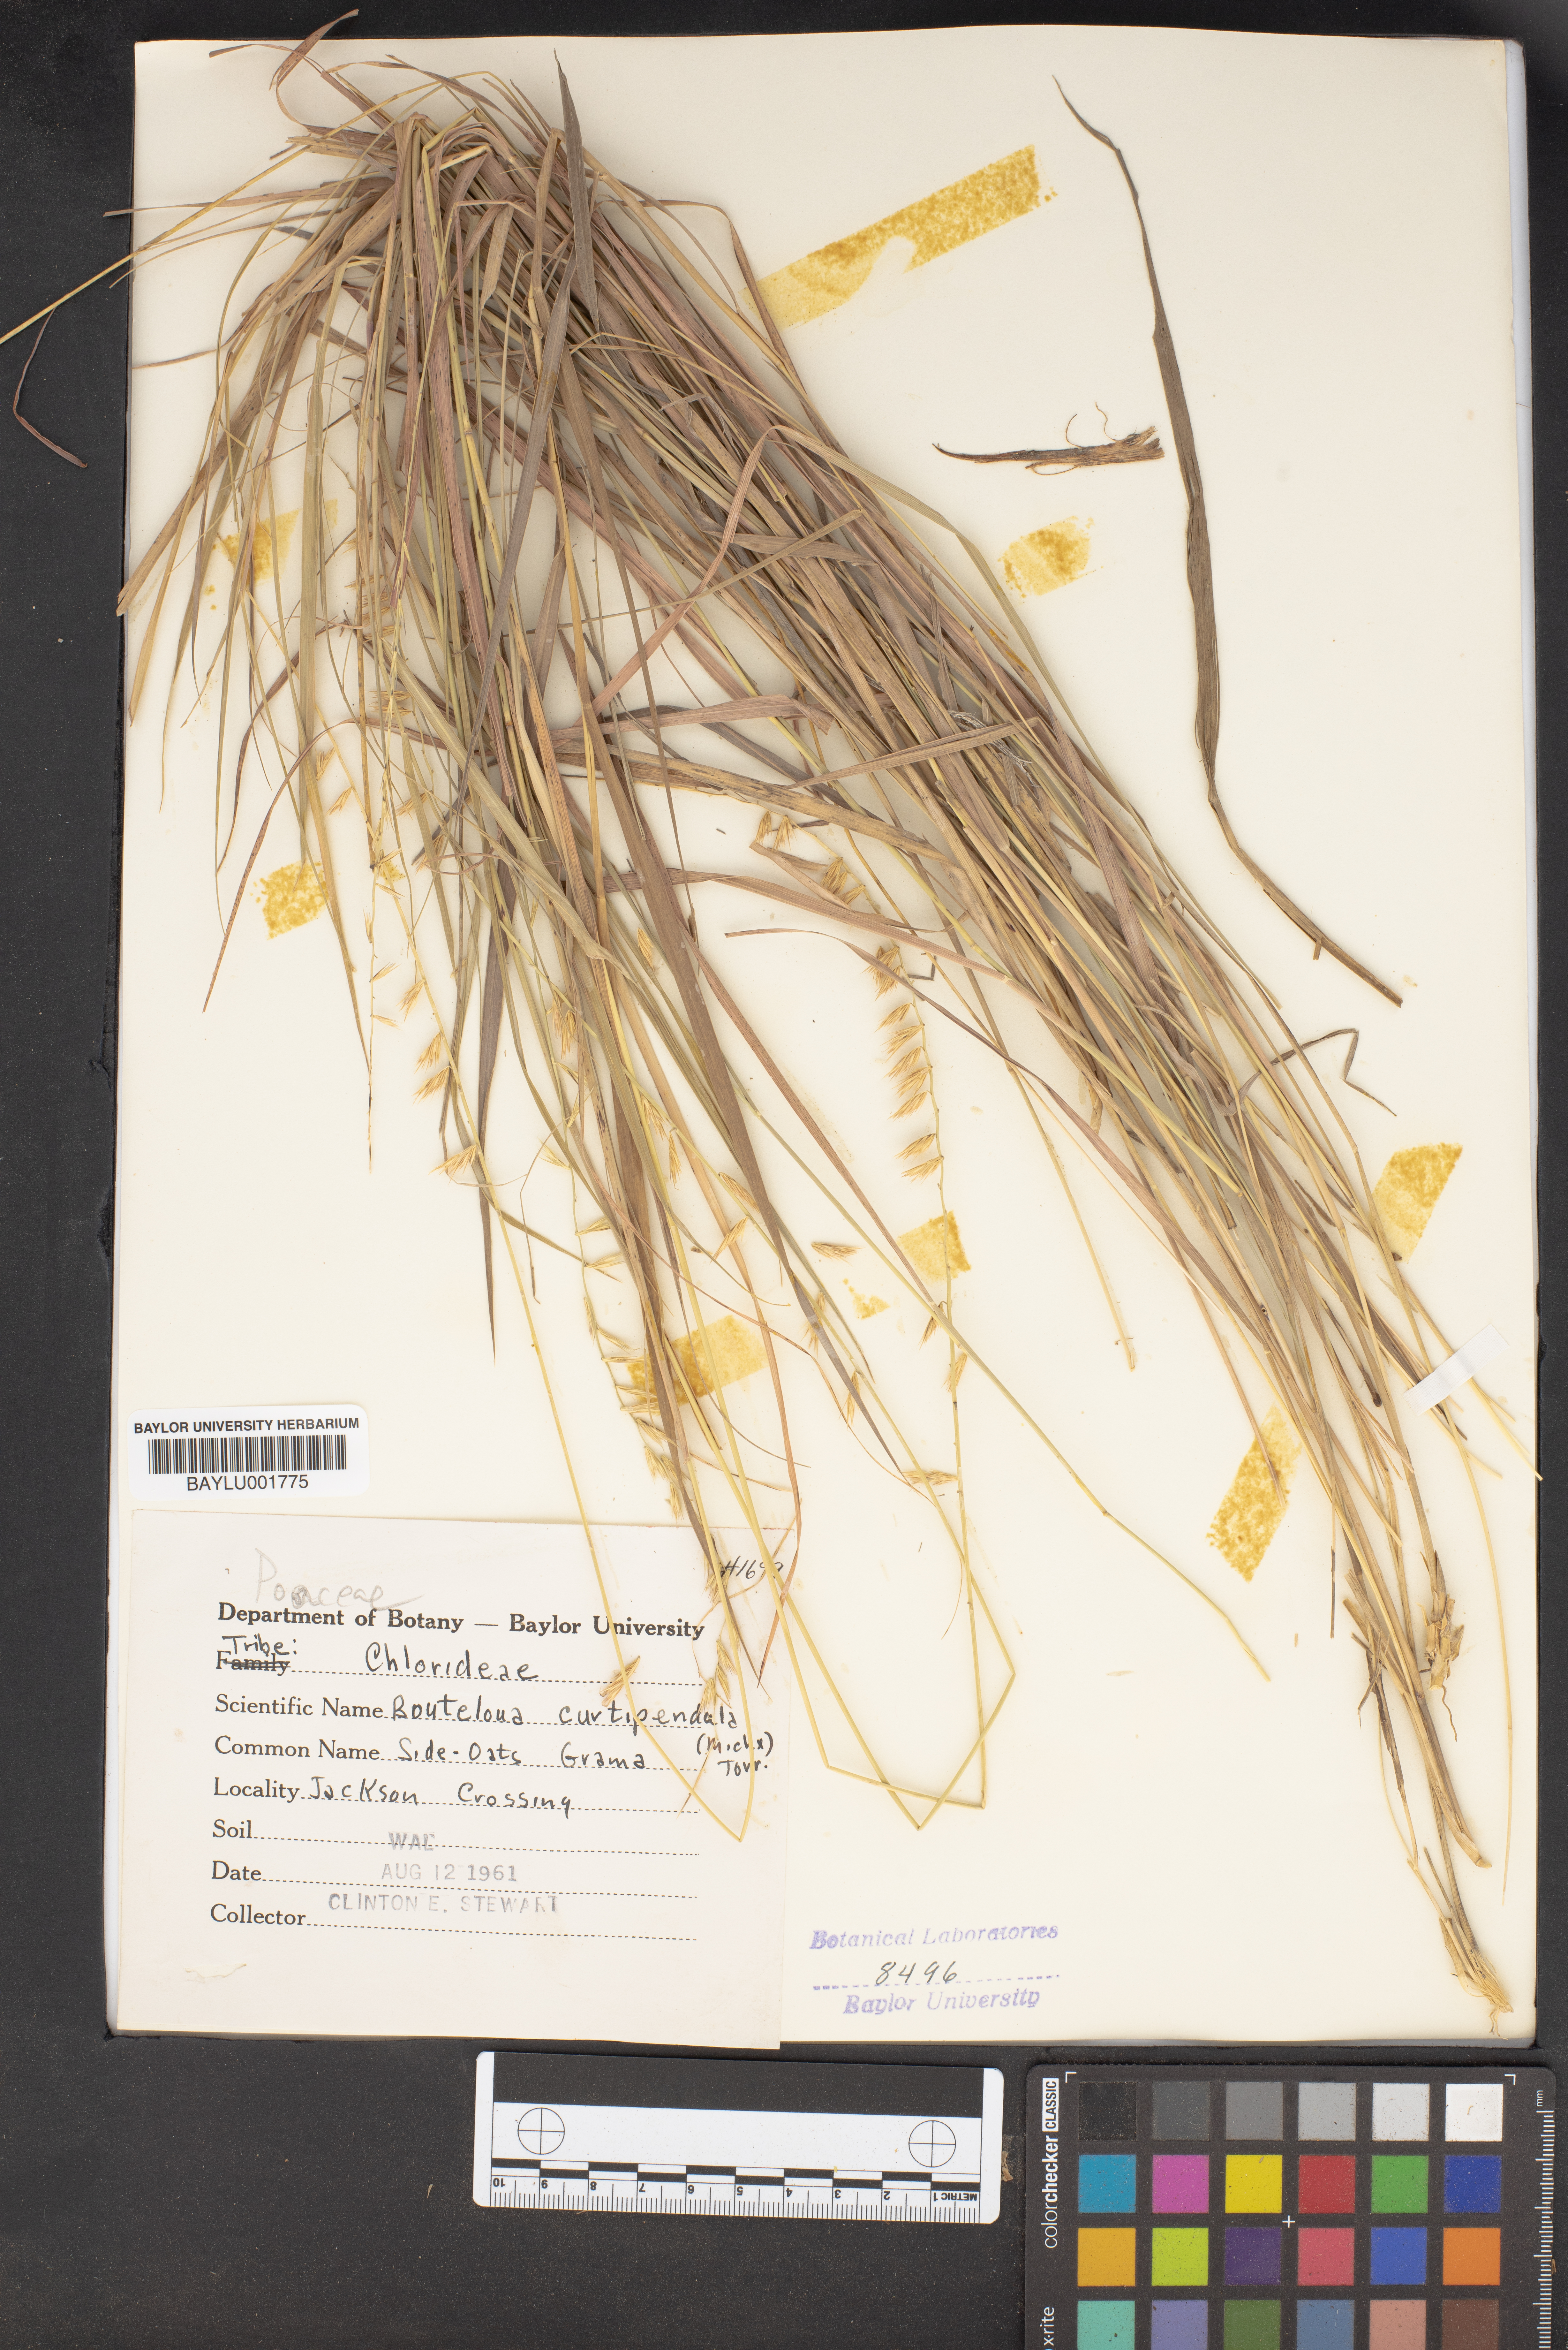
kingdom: Plantae
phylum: Tracheophyta
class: Liliopsida
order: Poales
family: Poaceae
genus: Bouteloua
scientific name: Bouteloua curtipendula
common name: Side-oats grama
